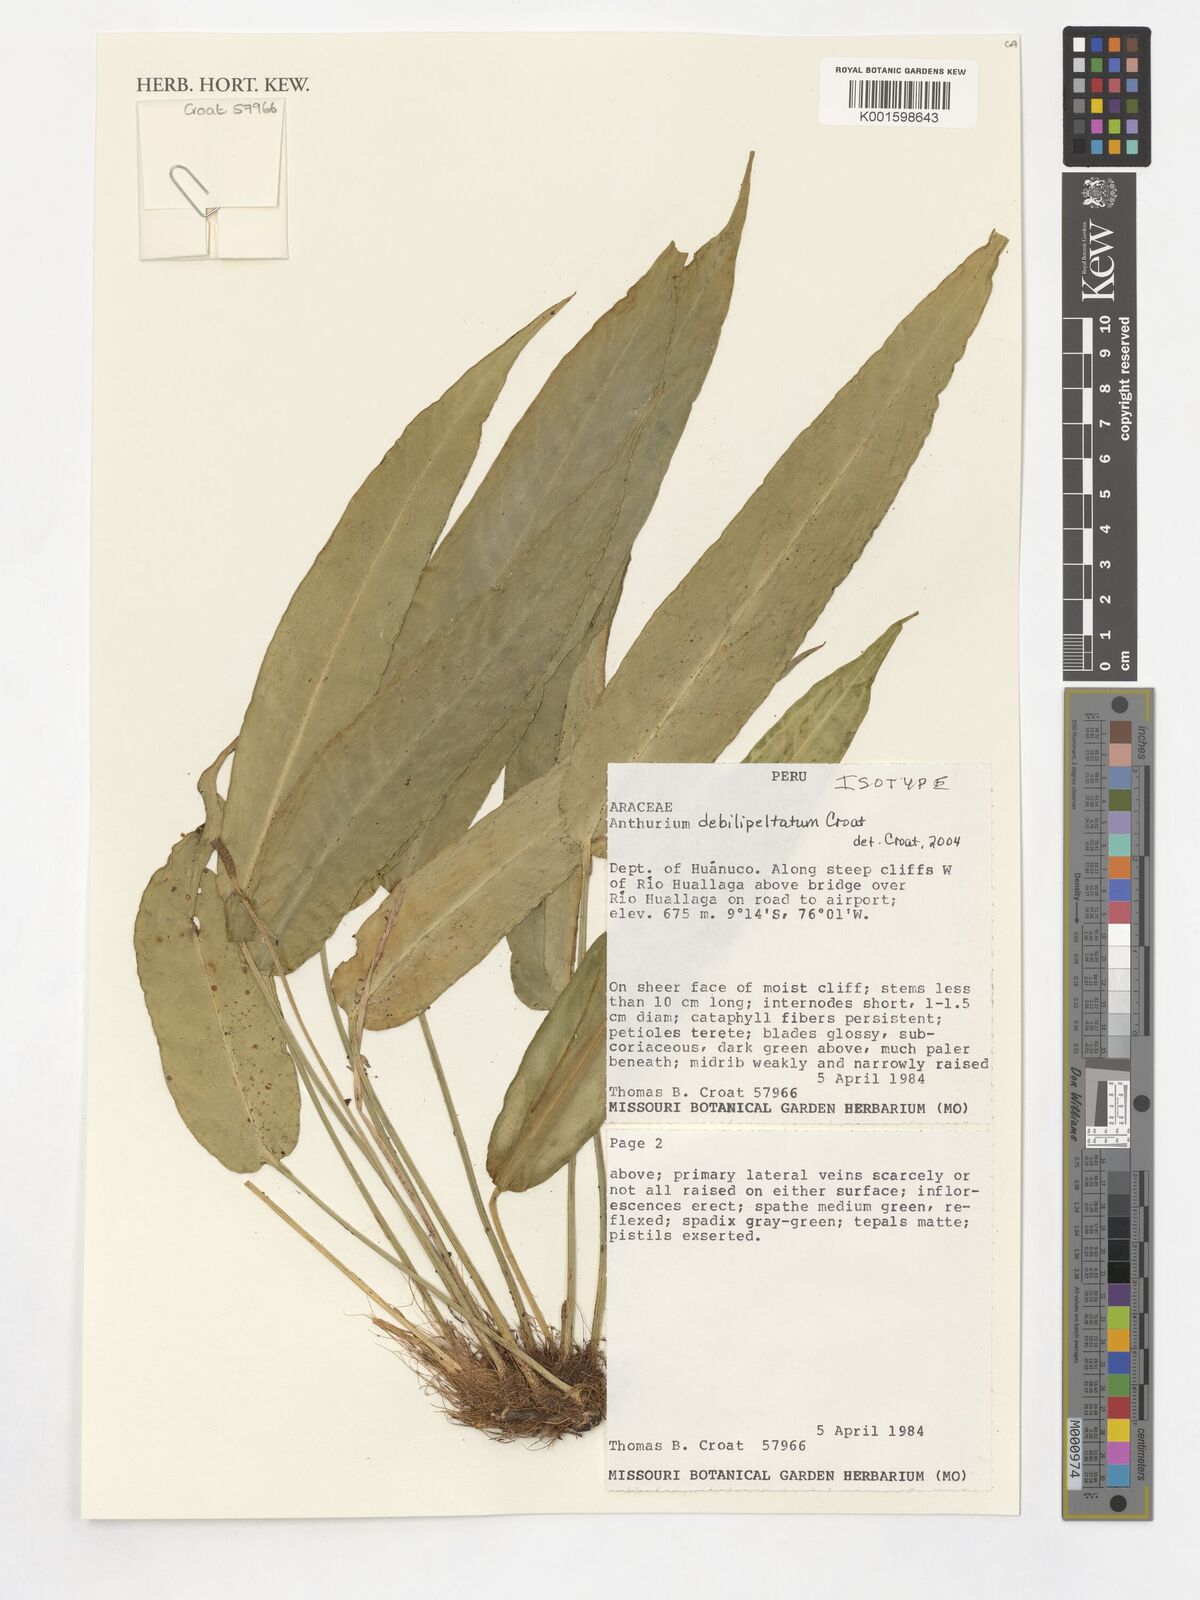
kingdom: Plantae
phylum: Tracheophyta
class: Liliopsida
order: Alismatales
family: Araceae
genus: Anthurium
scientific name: Anthurium debilipeltatum
